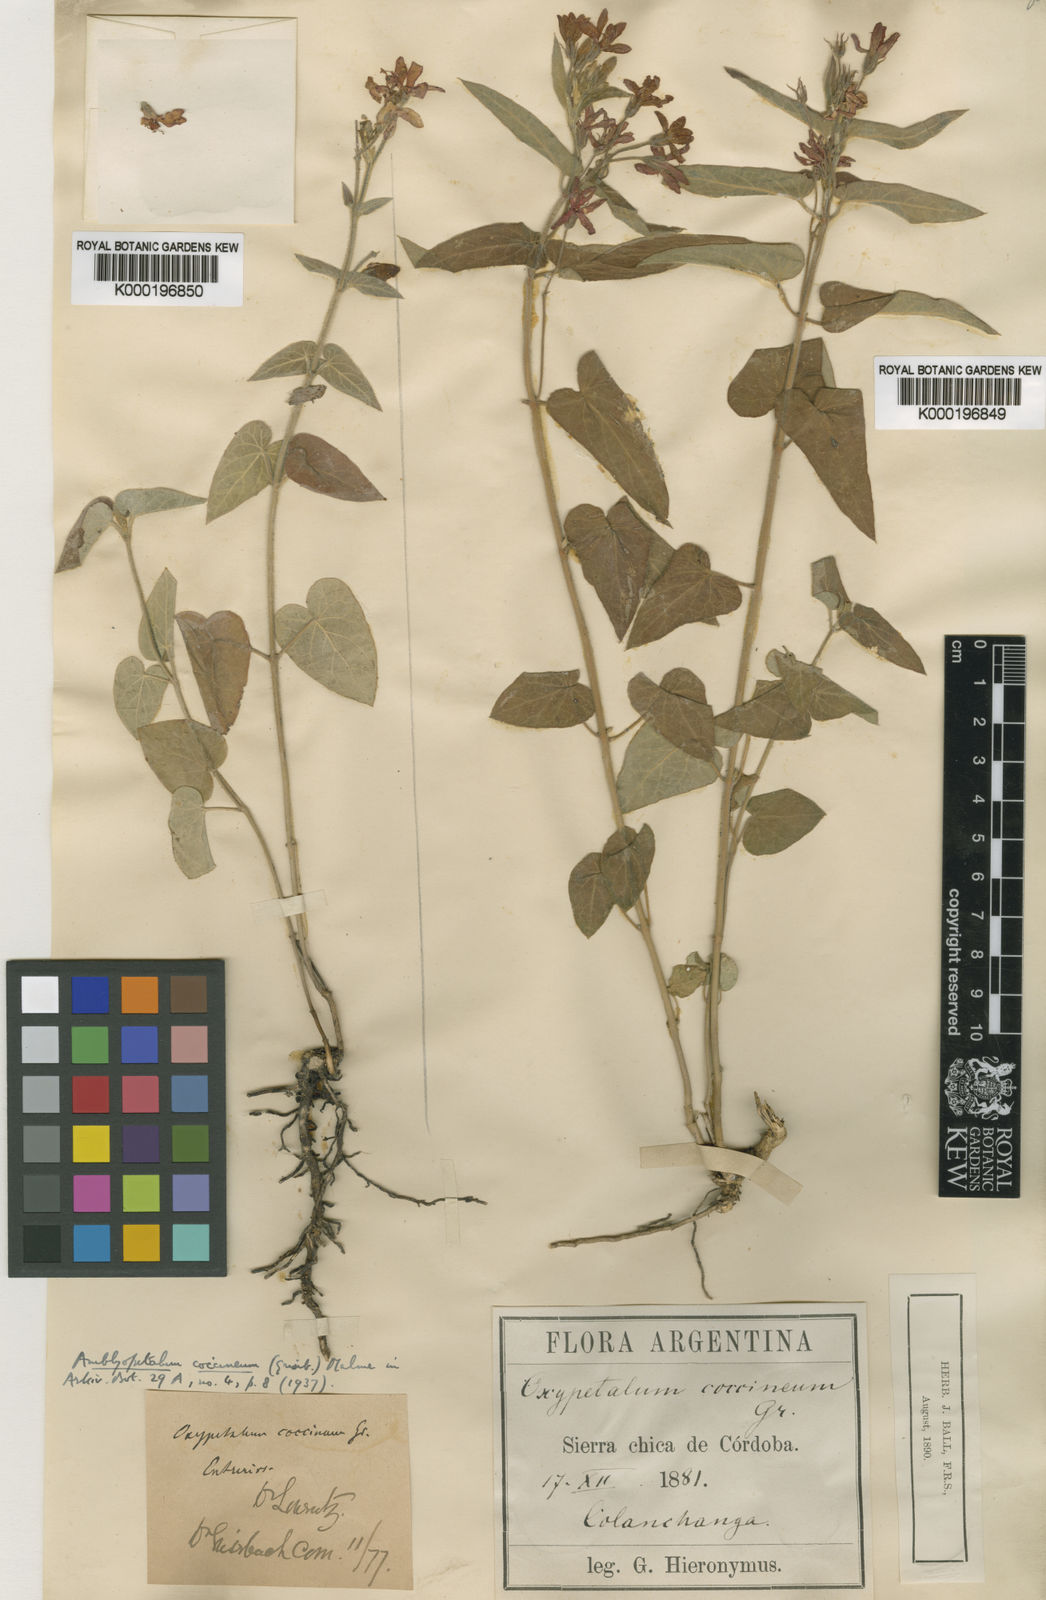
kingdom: Plantae
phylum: Tracheophyta
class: Magnoliopsida
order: Gentianales
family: Apocynaceae
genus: Oxypetalum
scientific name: Oxypetalum coccineum
